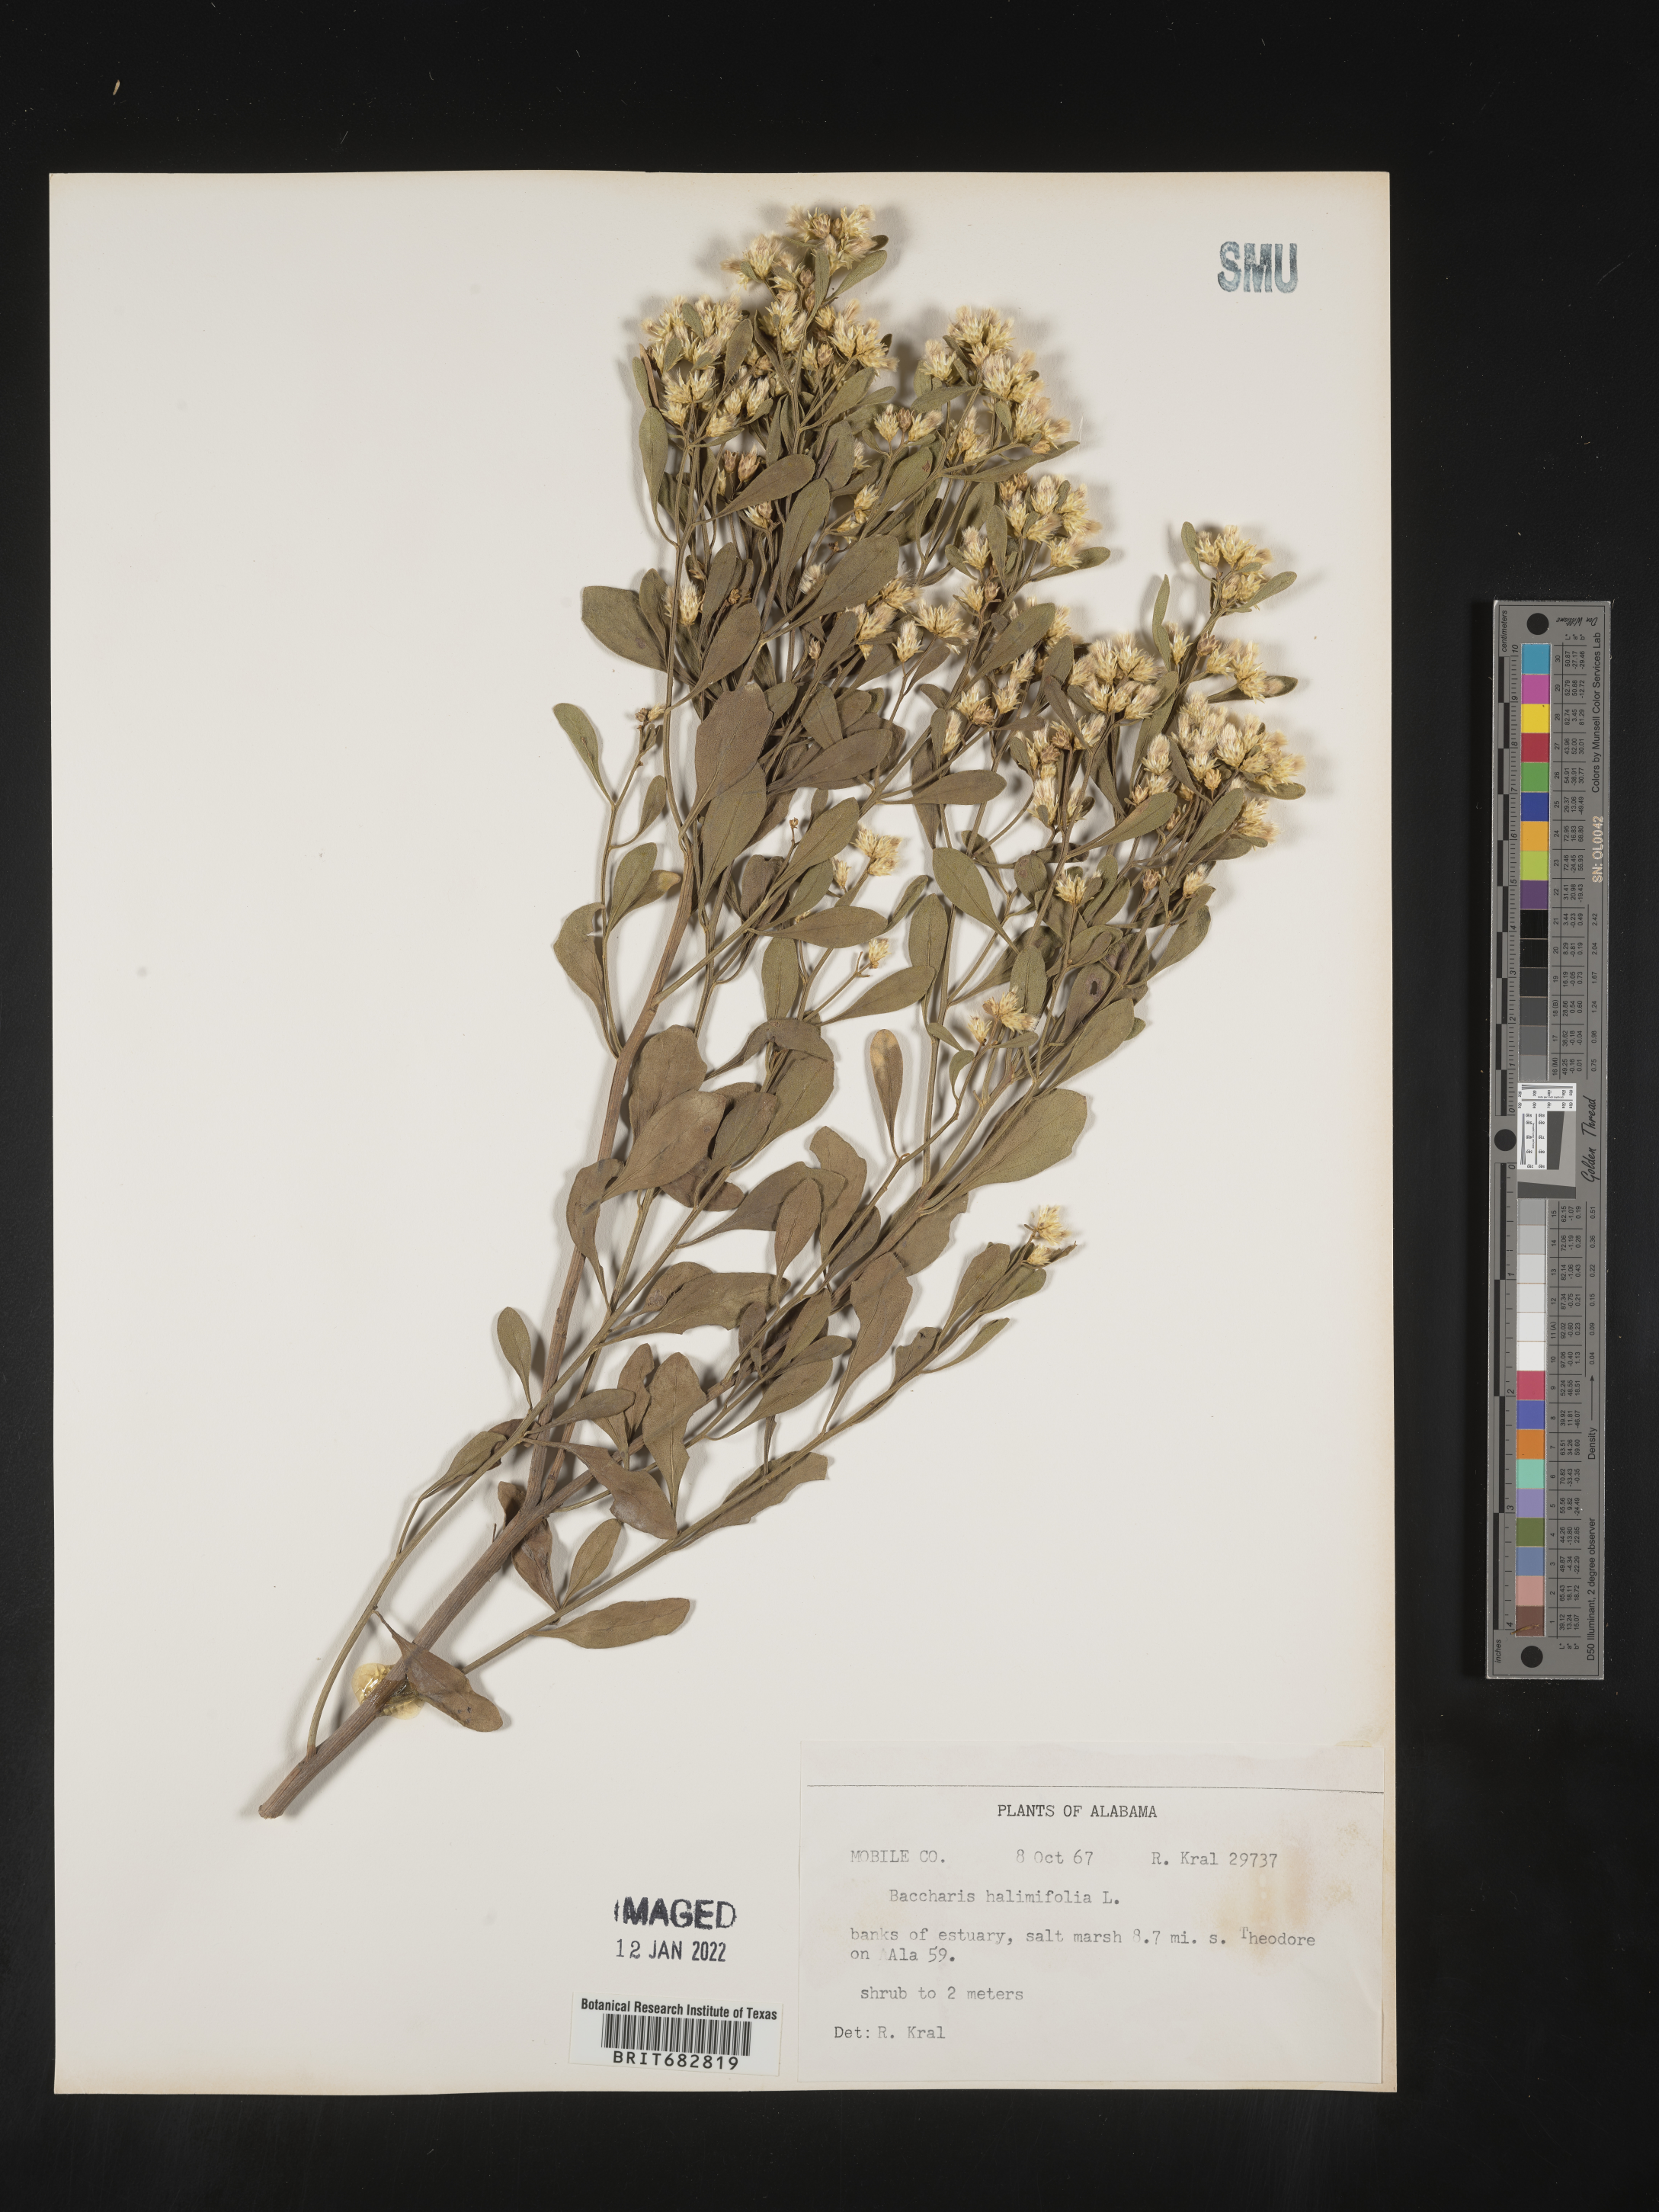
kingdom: Plantae
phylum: Tracheophyta
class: Magnoliopsida
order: Asterales
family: Asteraceae
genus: Nidorella
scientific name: Nidorella ivifolia
